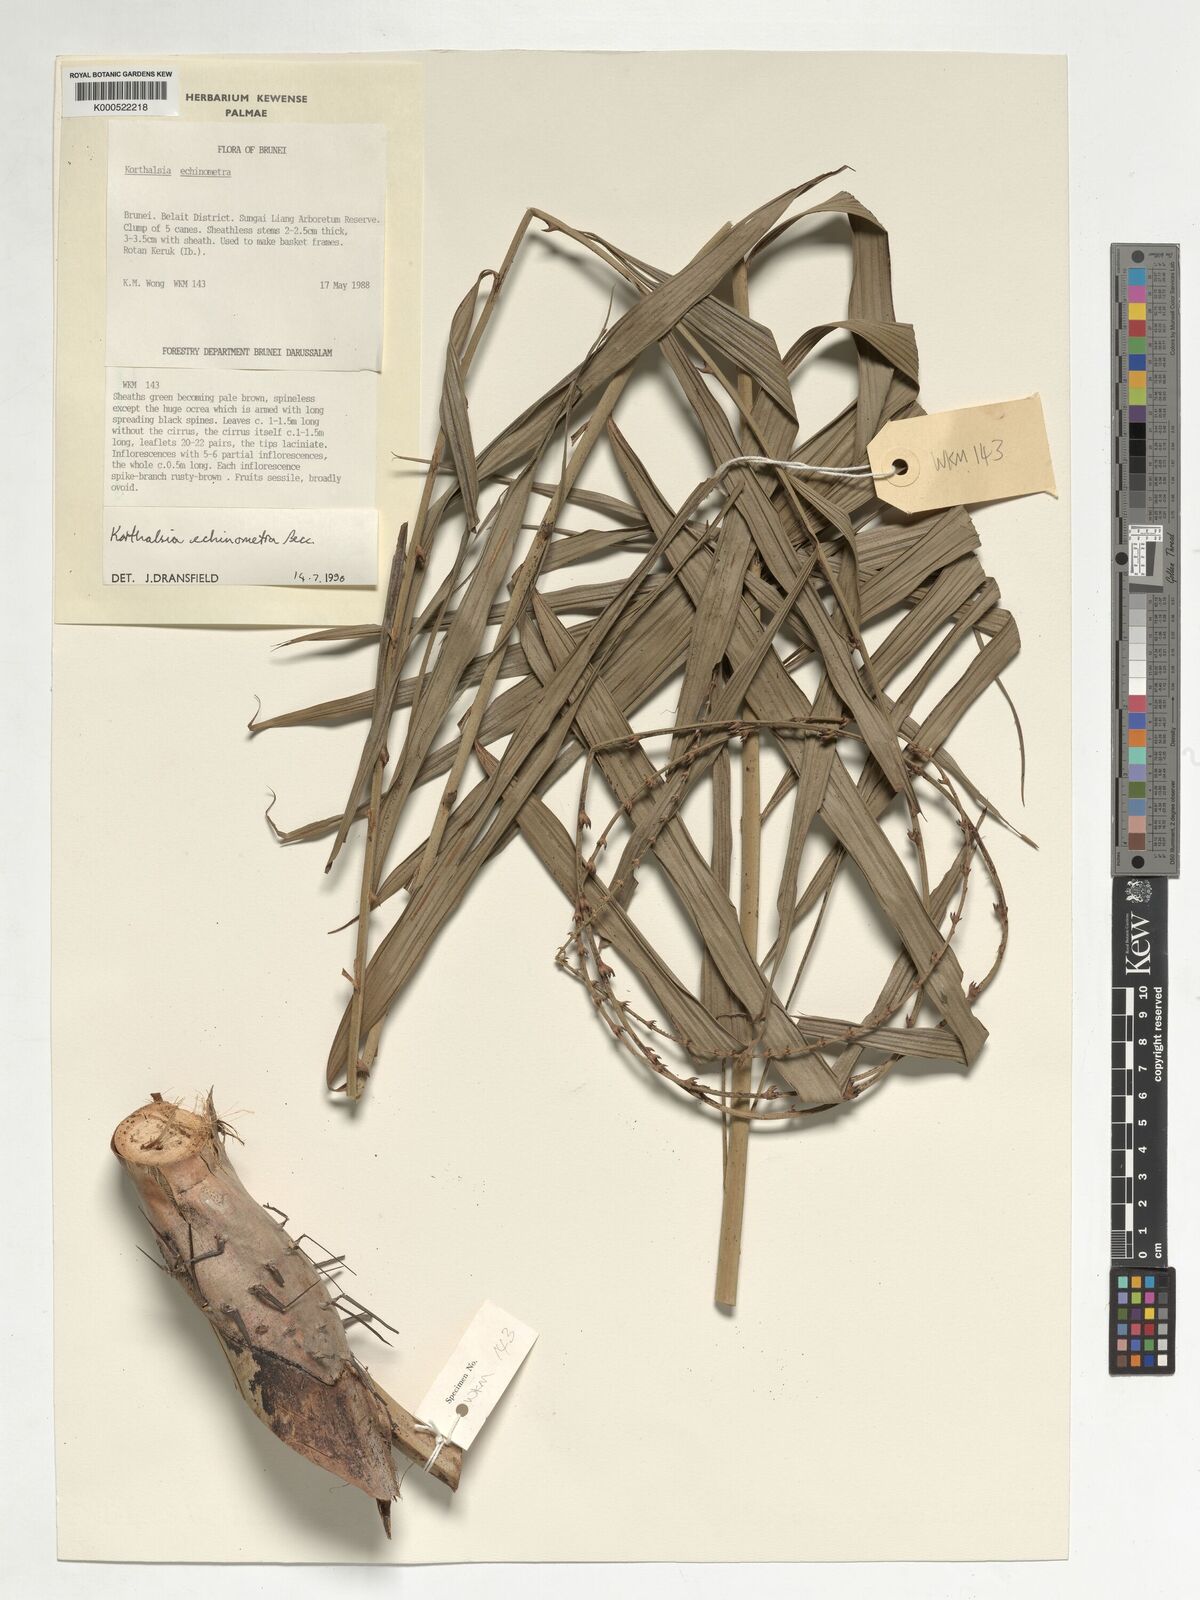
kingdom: Plantae
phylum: Tracheophyta
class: Liliopsida
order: Arecales
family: Arecaceae
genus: Korthalsia
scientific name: Korthalsia echinometra
